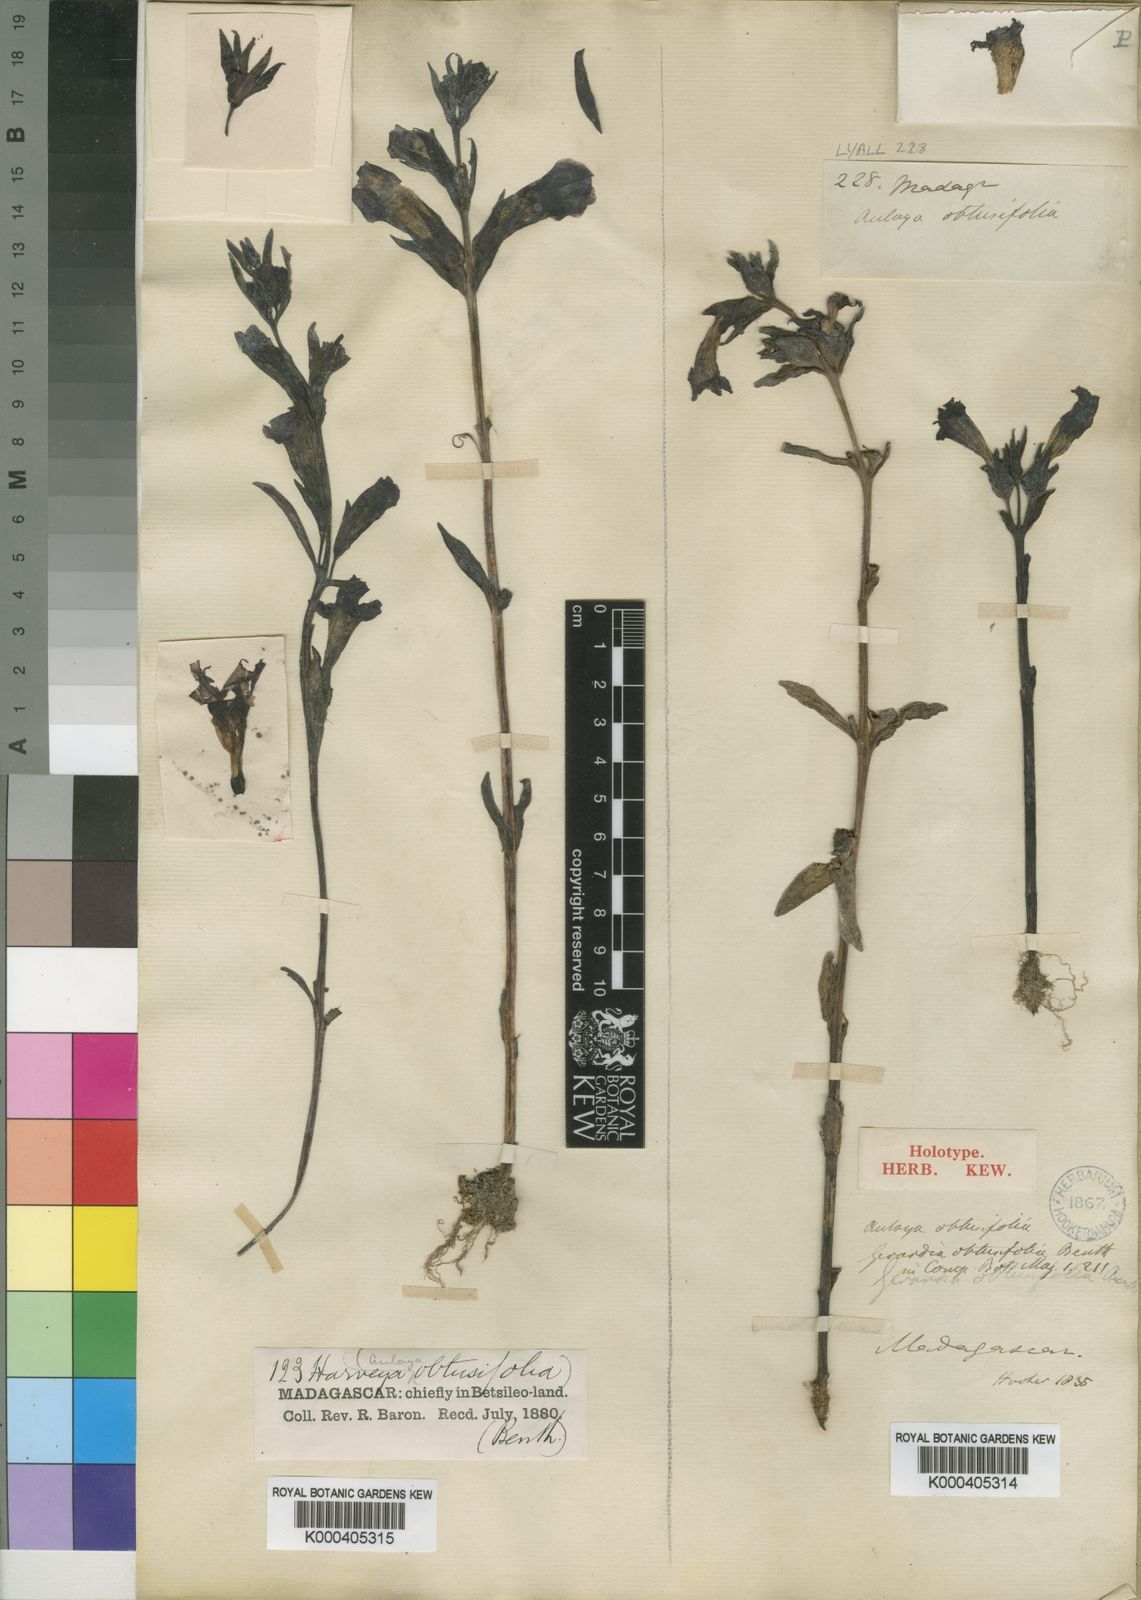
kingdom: Plantae
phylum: Tracheophyta
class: Magnoliopsida
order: Lamiales
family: Orobanchaceae
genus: Harveya
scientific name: Harveya obtusifolia
